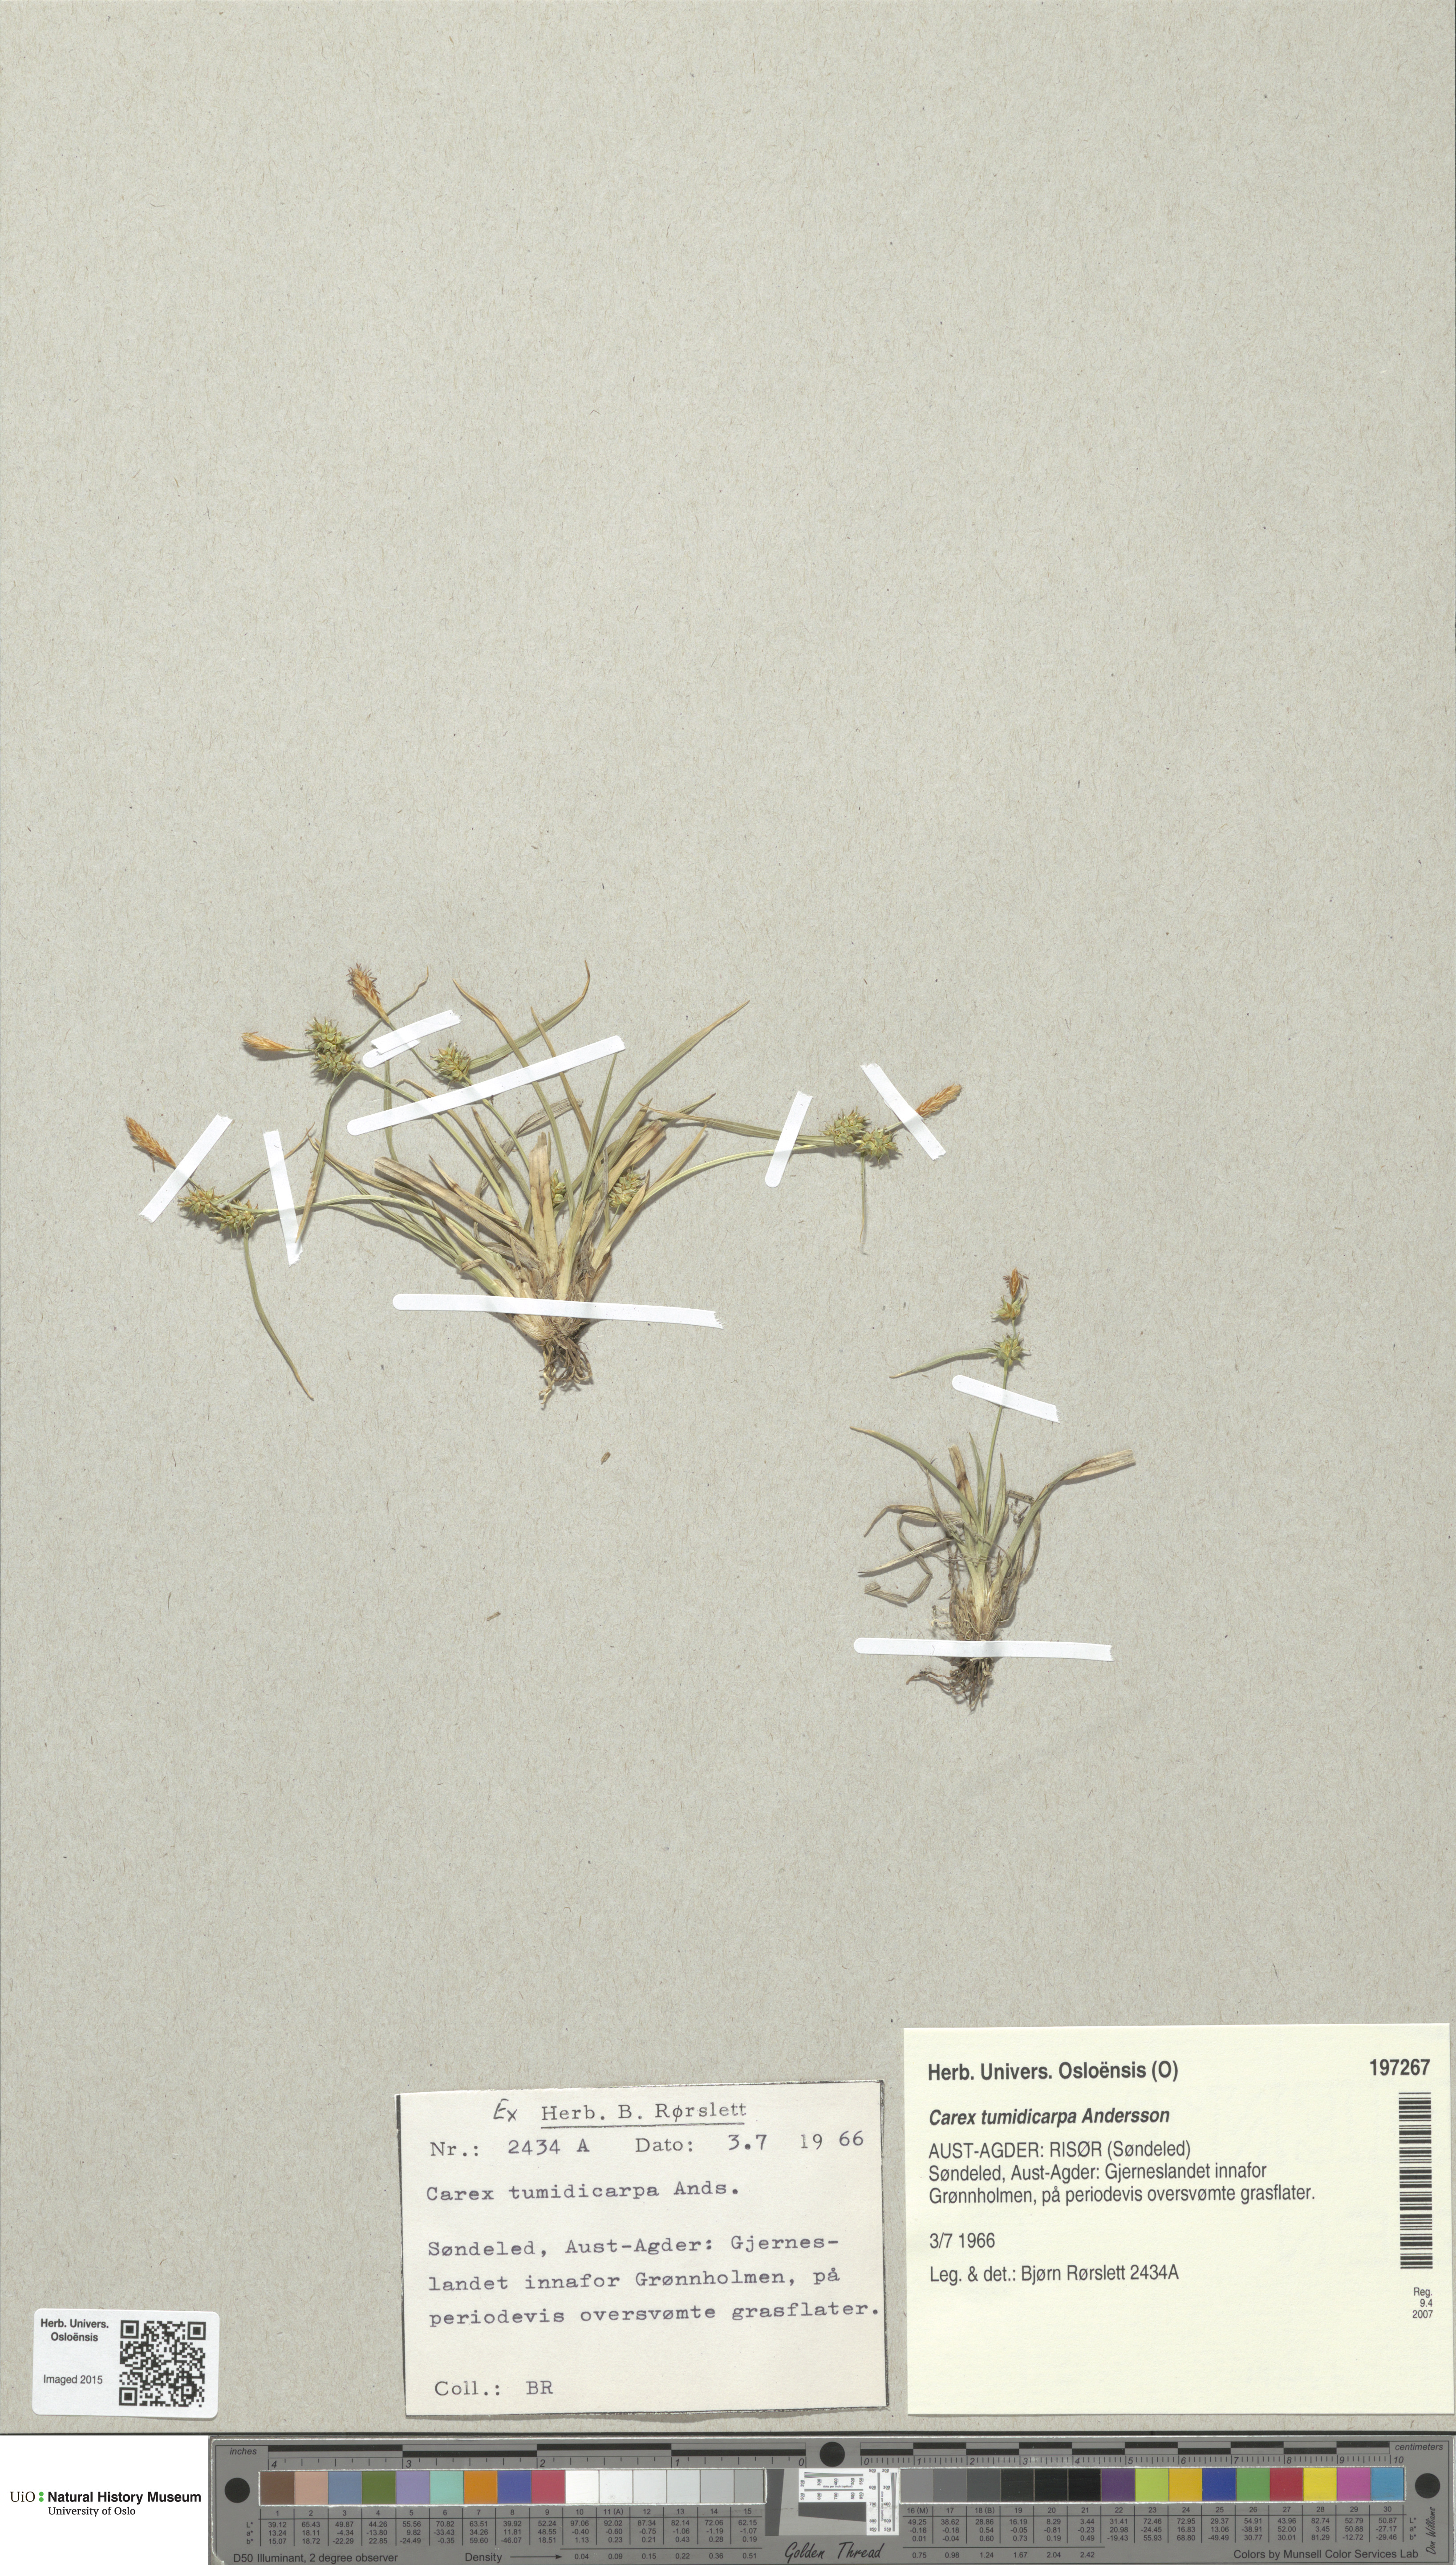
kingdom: Plantae
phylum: Tracheophyta
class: Liliopsida
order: Poales
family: Cyperaceae
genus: Carex
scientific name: Carex demissa
